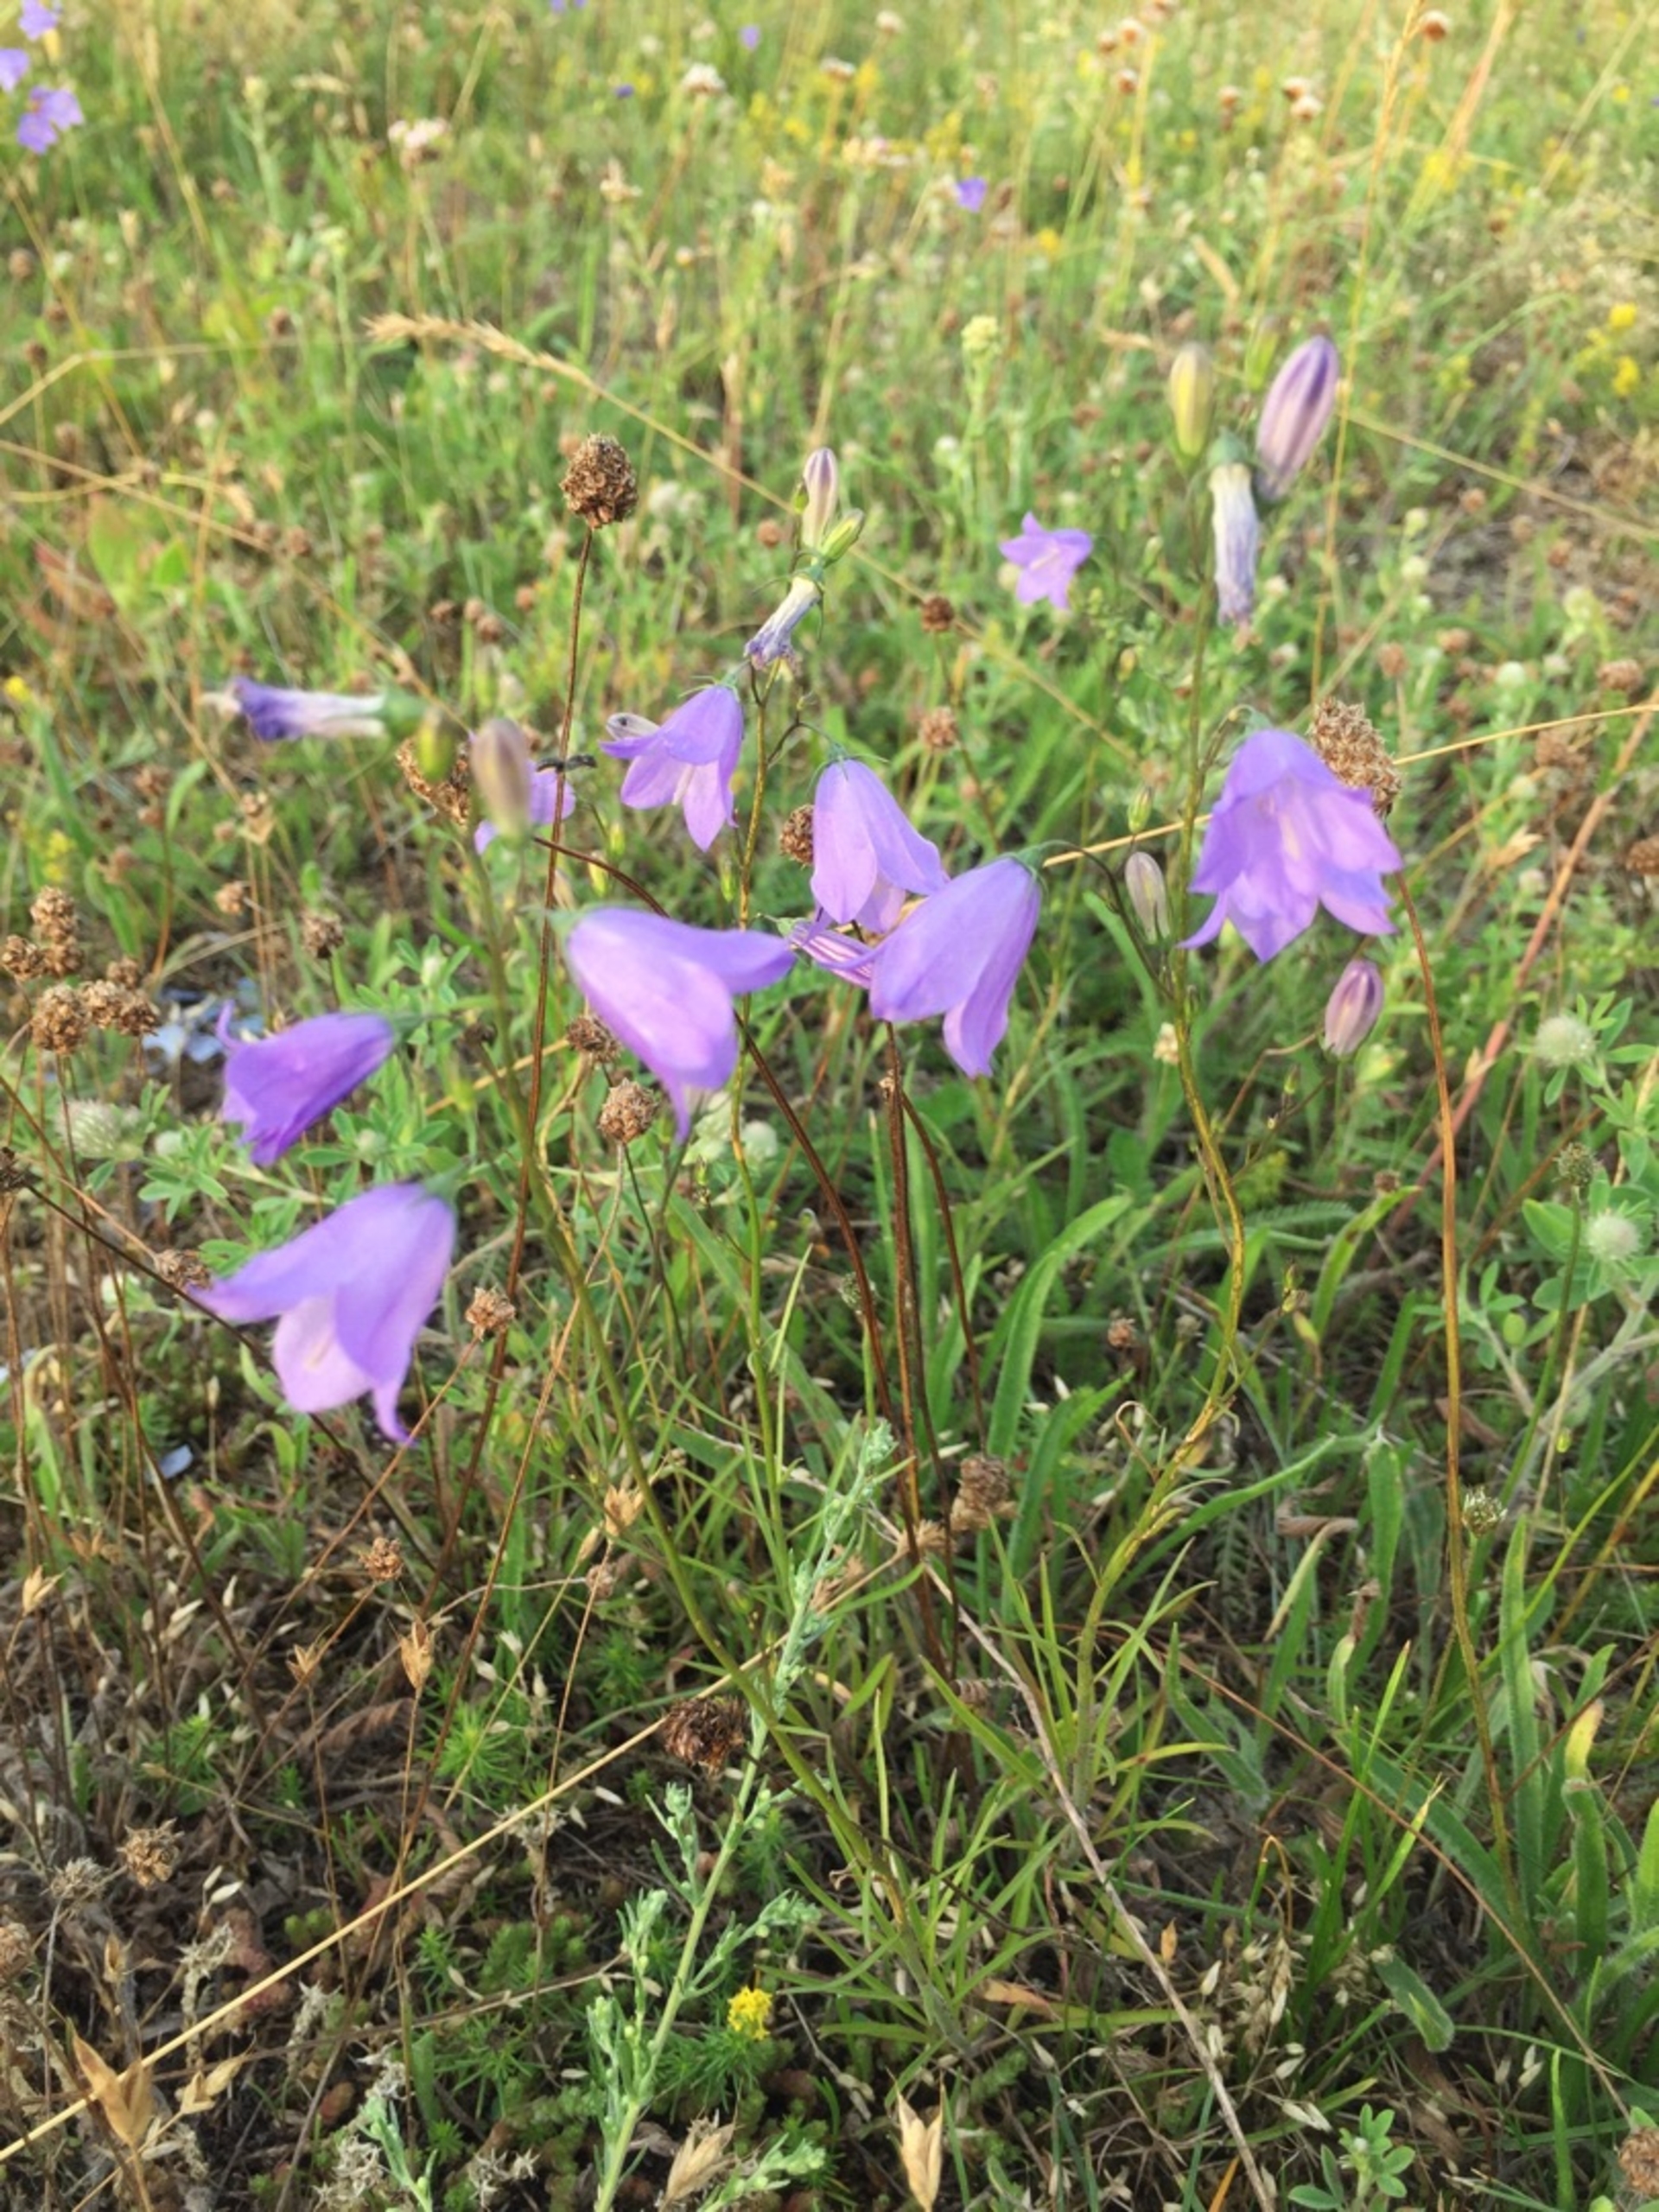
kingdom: Plantae
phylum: Tracheophyta
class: Magnoliopsida
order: Asterales
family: Campanulaceae
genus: Campanula
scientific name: Campanula rotundifolia
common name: Liden klokke
